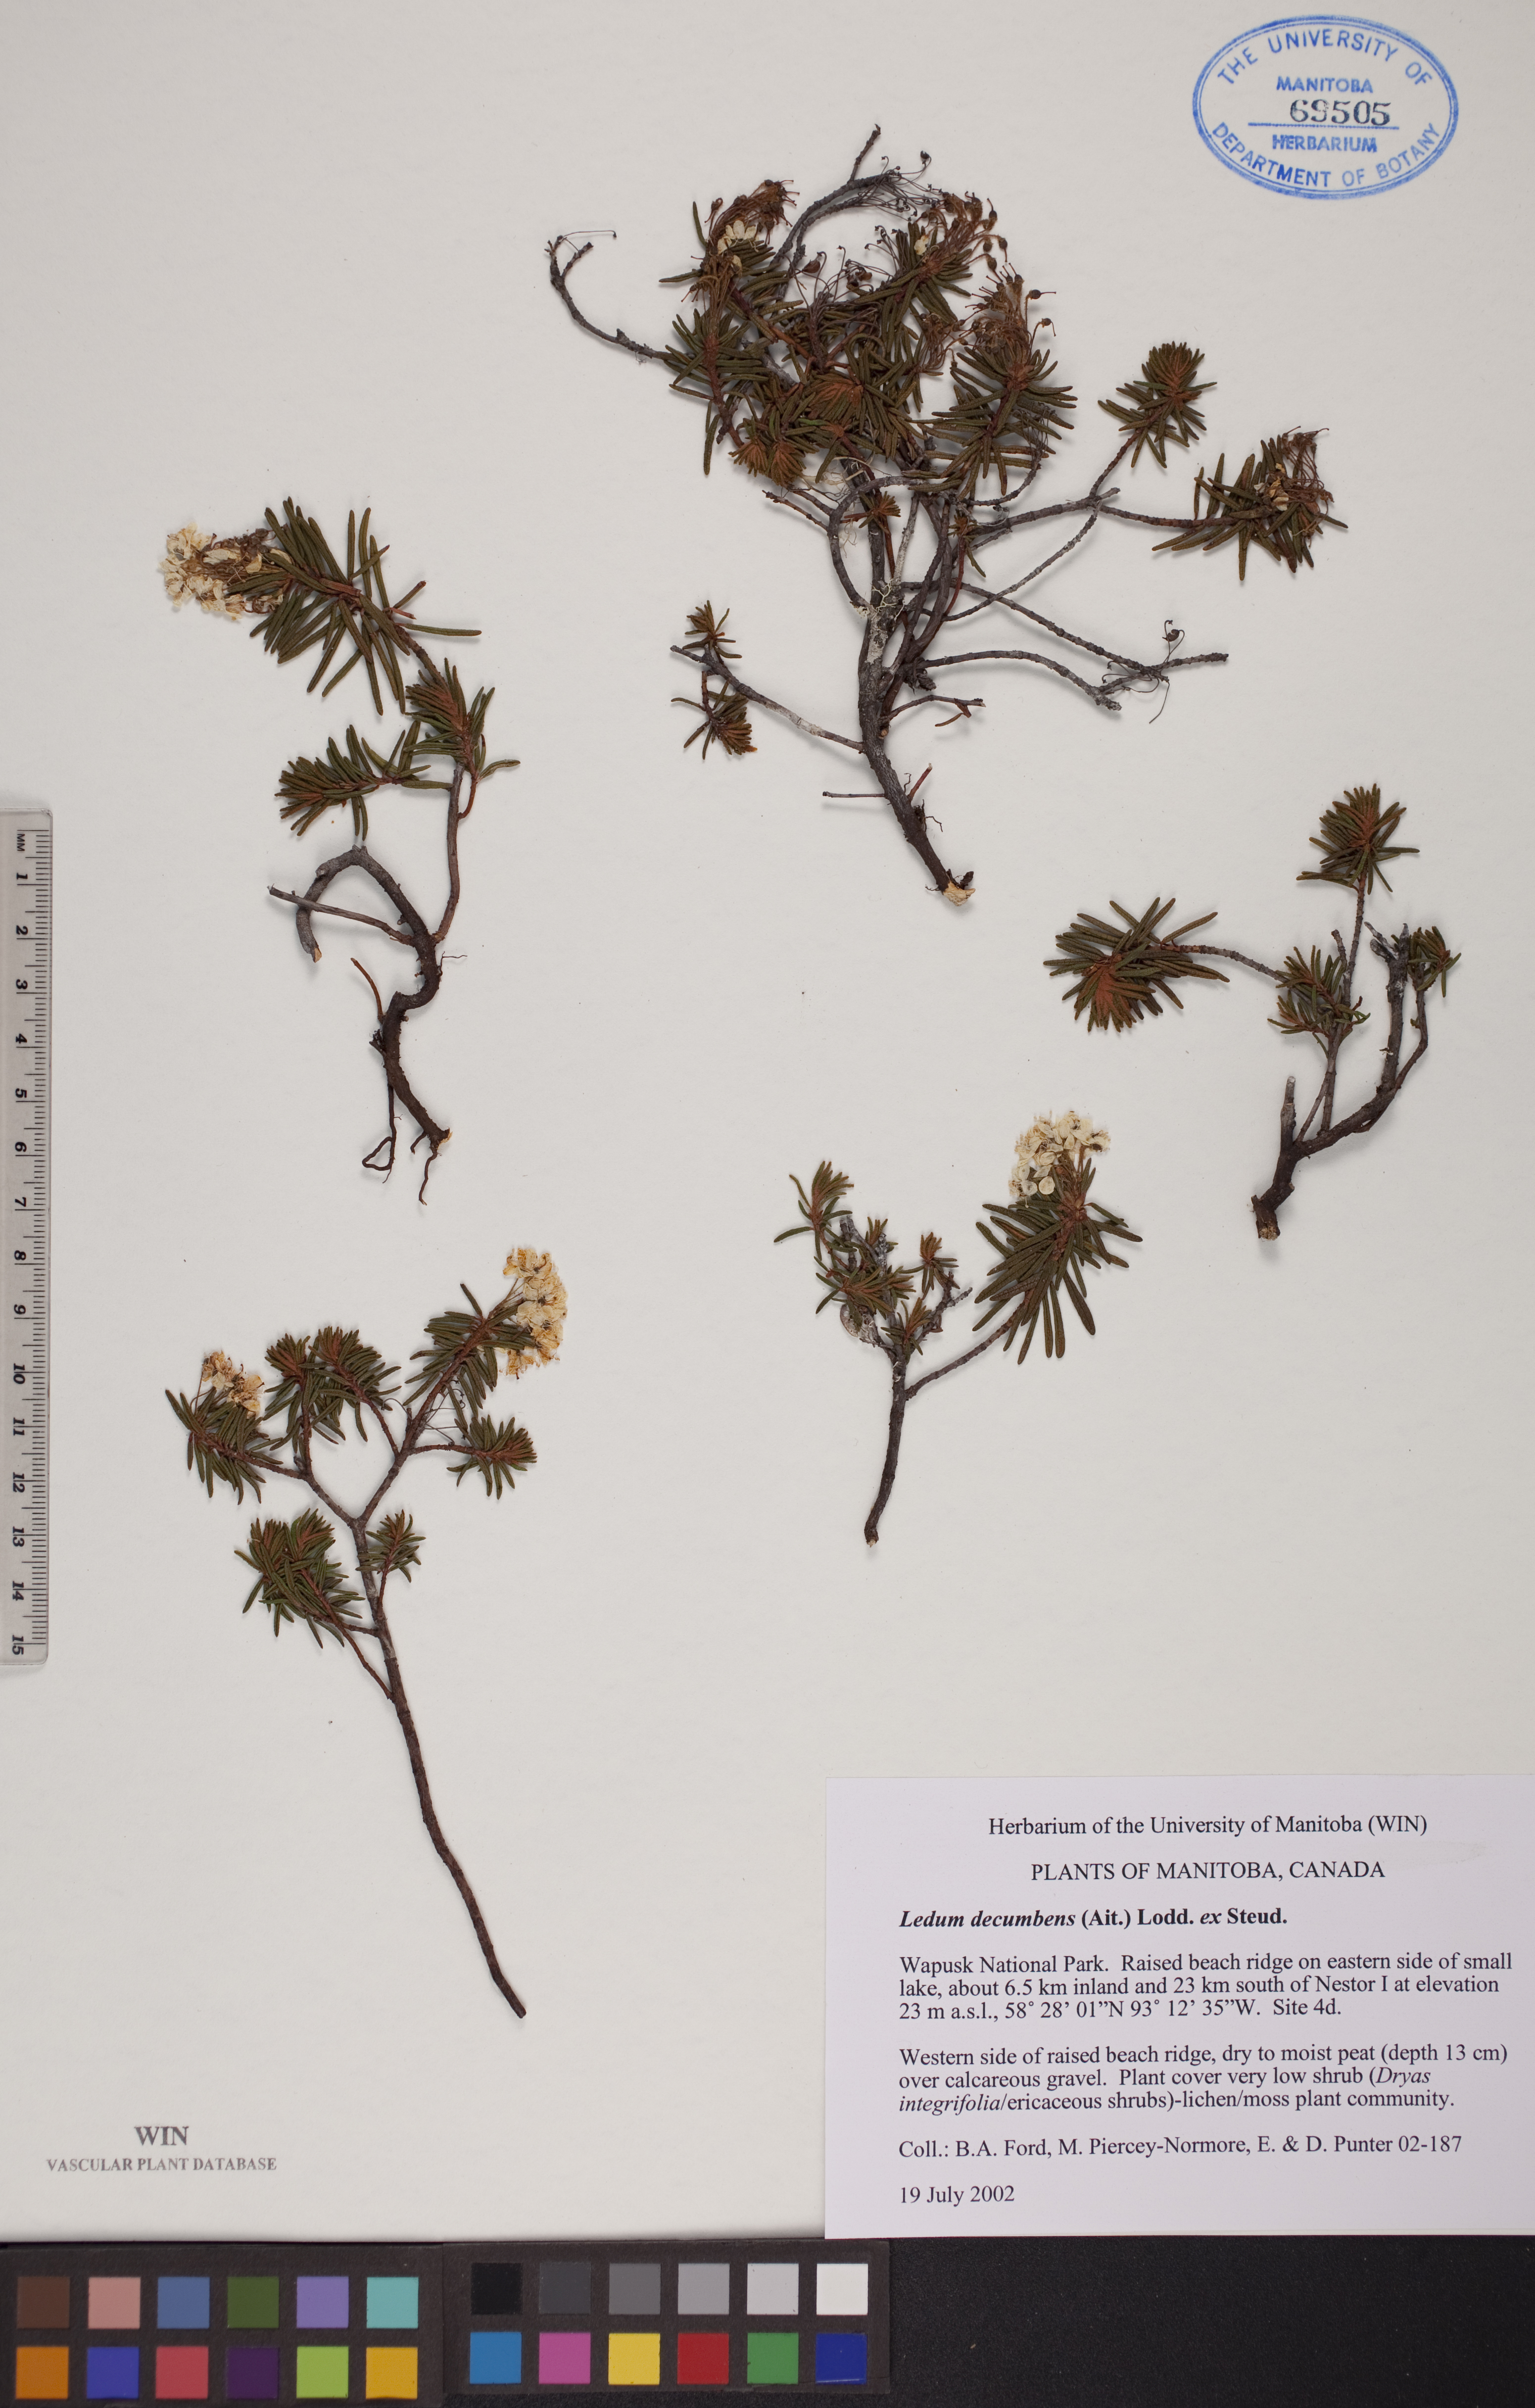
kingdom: Plantae
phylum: Tracheophyta
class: Magnoliopsida
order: Ericales
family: Ericaceae
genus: Rhododendron
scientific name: Rhododendron tomentosum
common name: Marsh labrador tea
